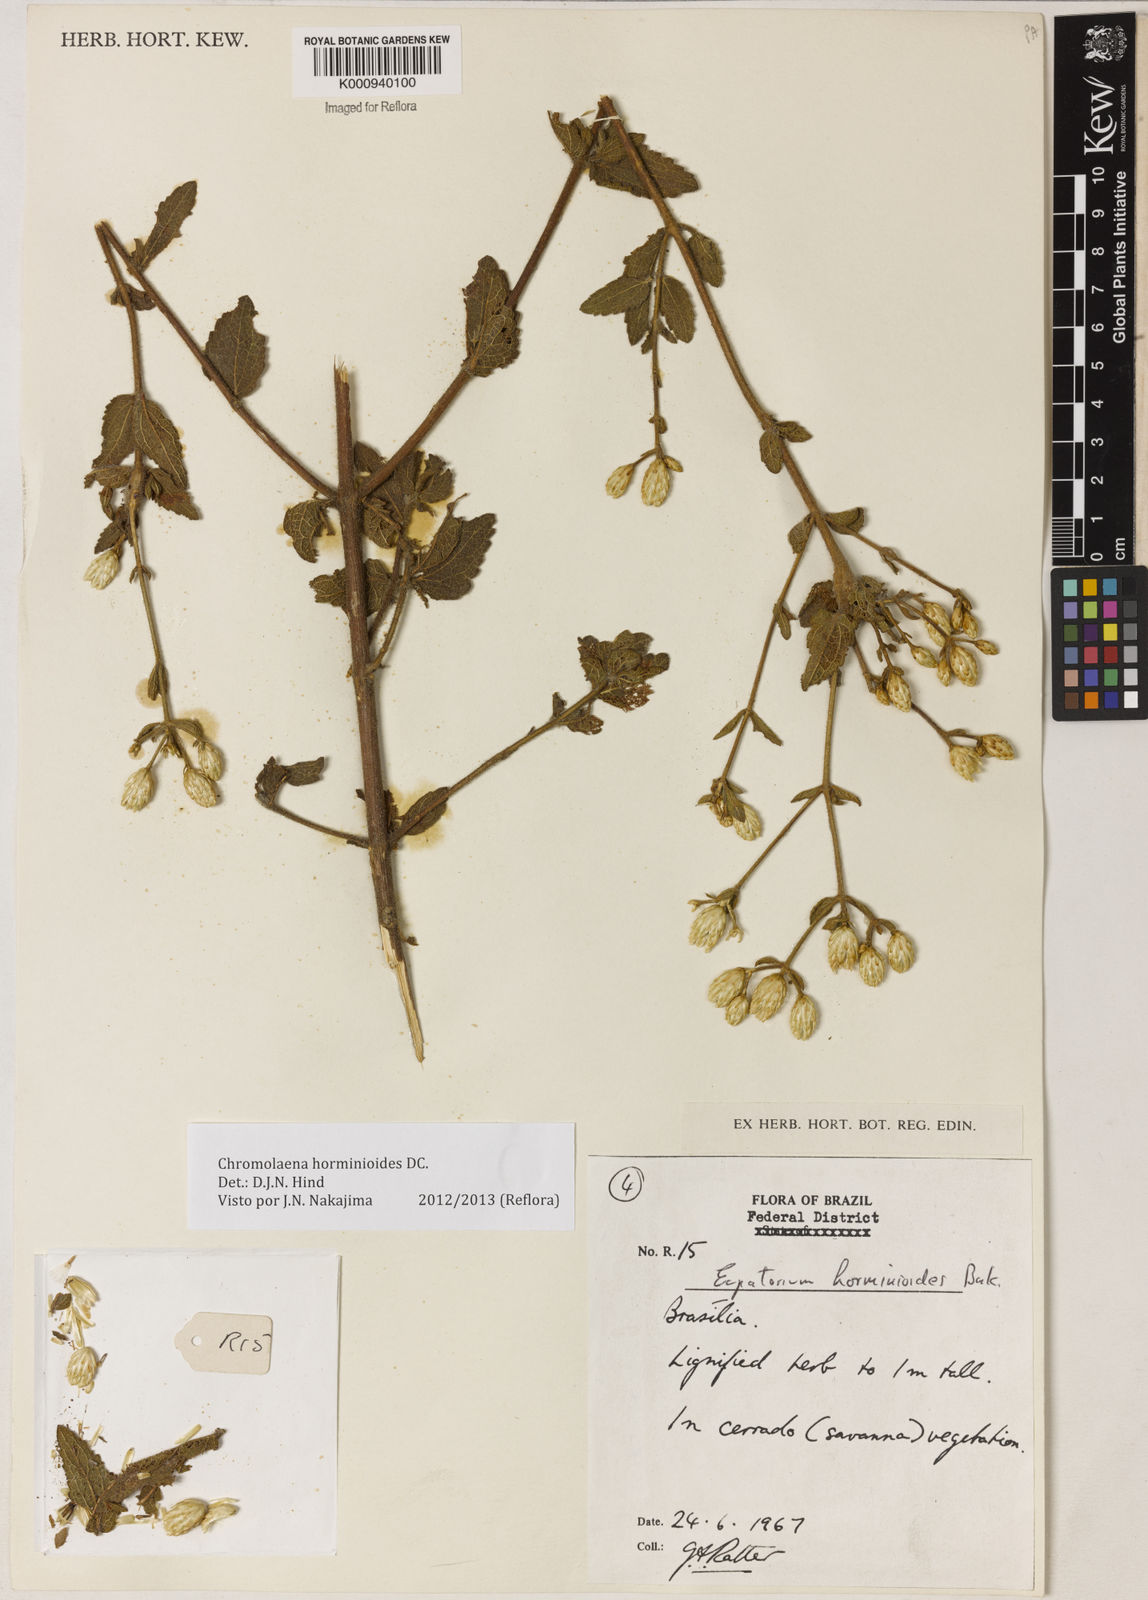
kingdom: Plantae
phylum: Tracheophyta
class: Magnoliopsida
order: Asterales
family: Asteraceae
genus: Chromolaena
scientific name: Chromolaena horminoides
